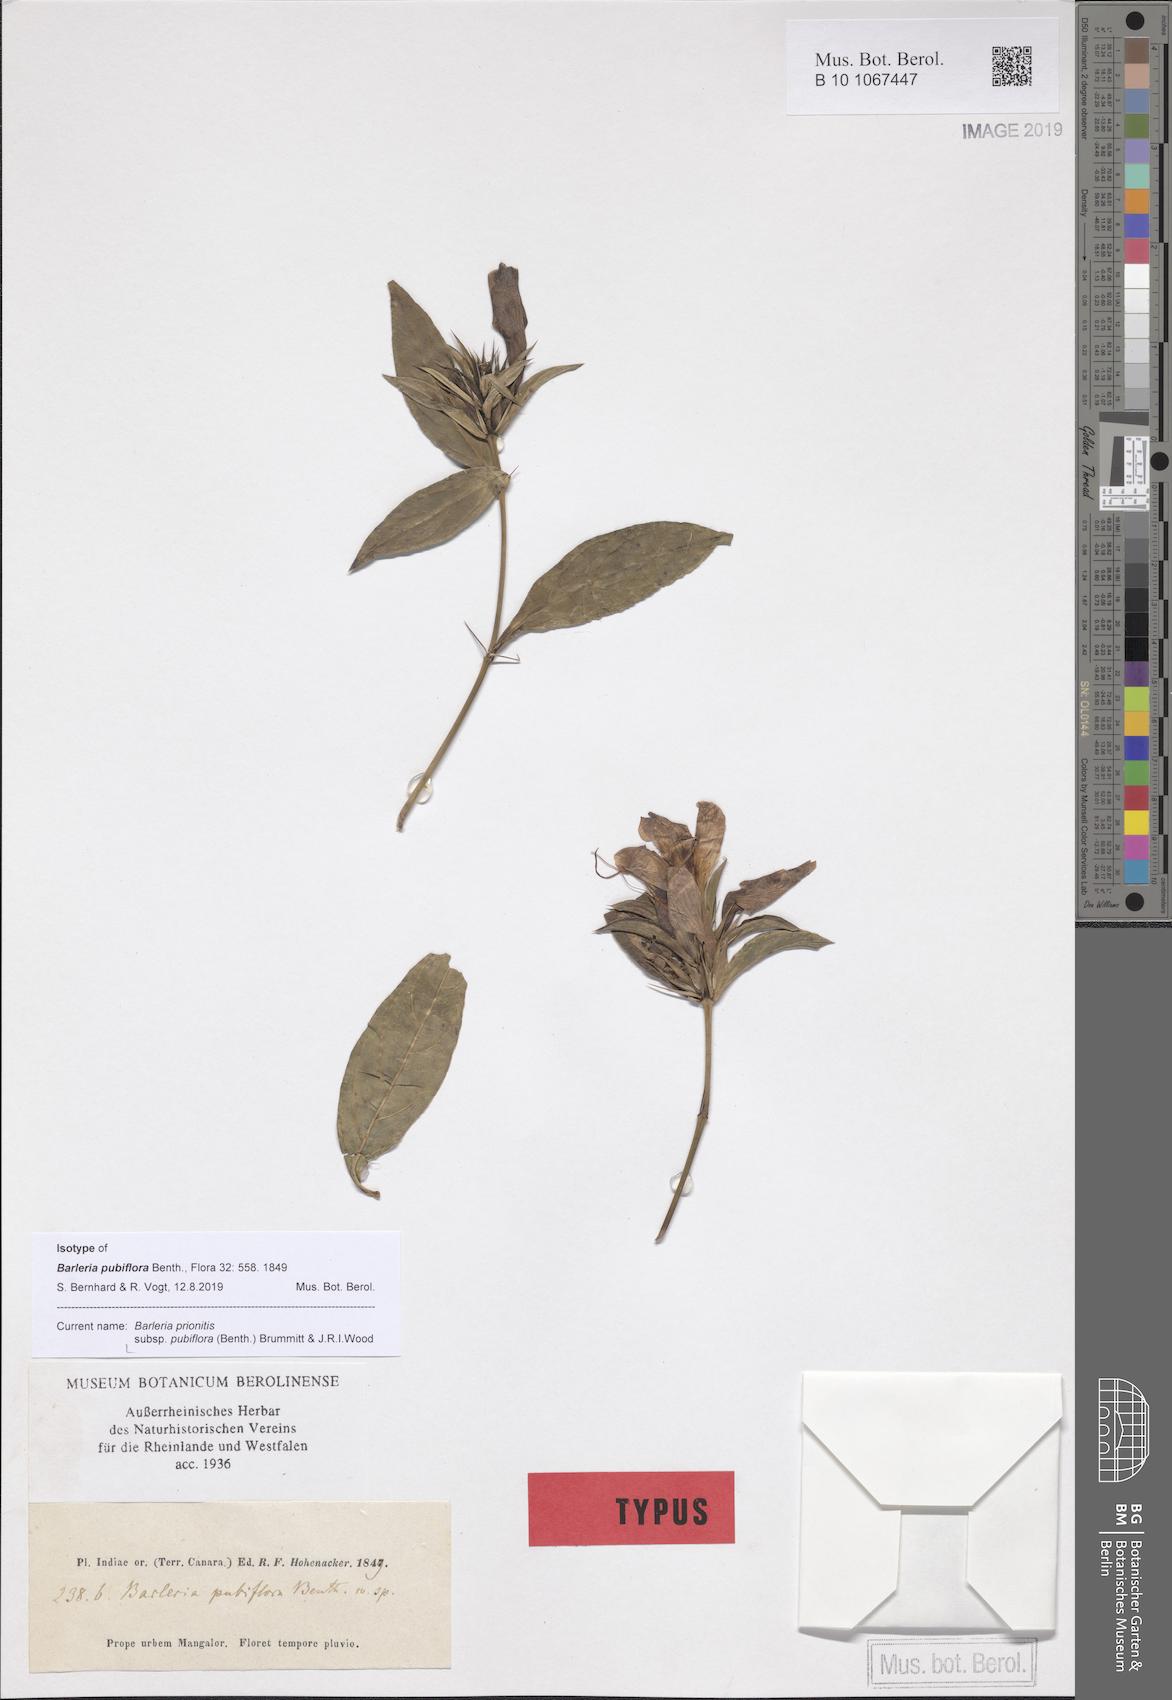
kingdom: Plantae
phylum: Tracheophyta
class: Magnoliopsida
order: Lamiales
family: Acanthaceae
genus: Barleria
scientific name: Barleria prionitis
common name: Barleria
